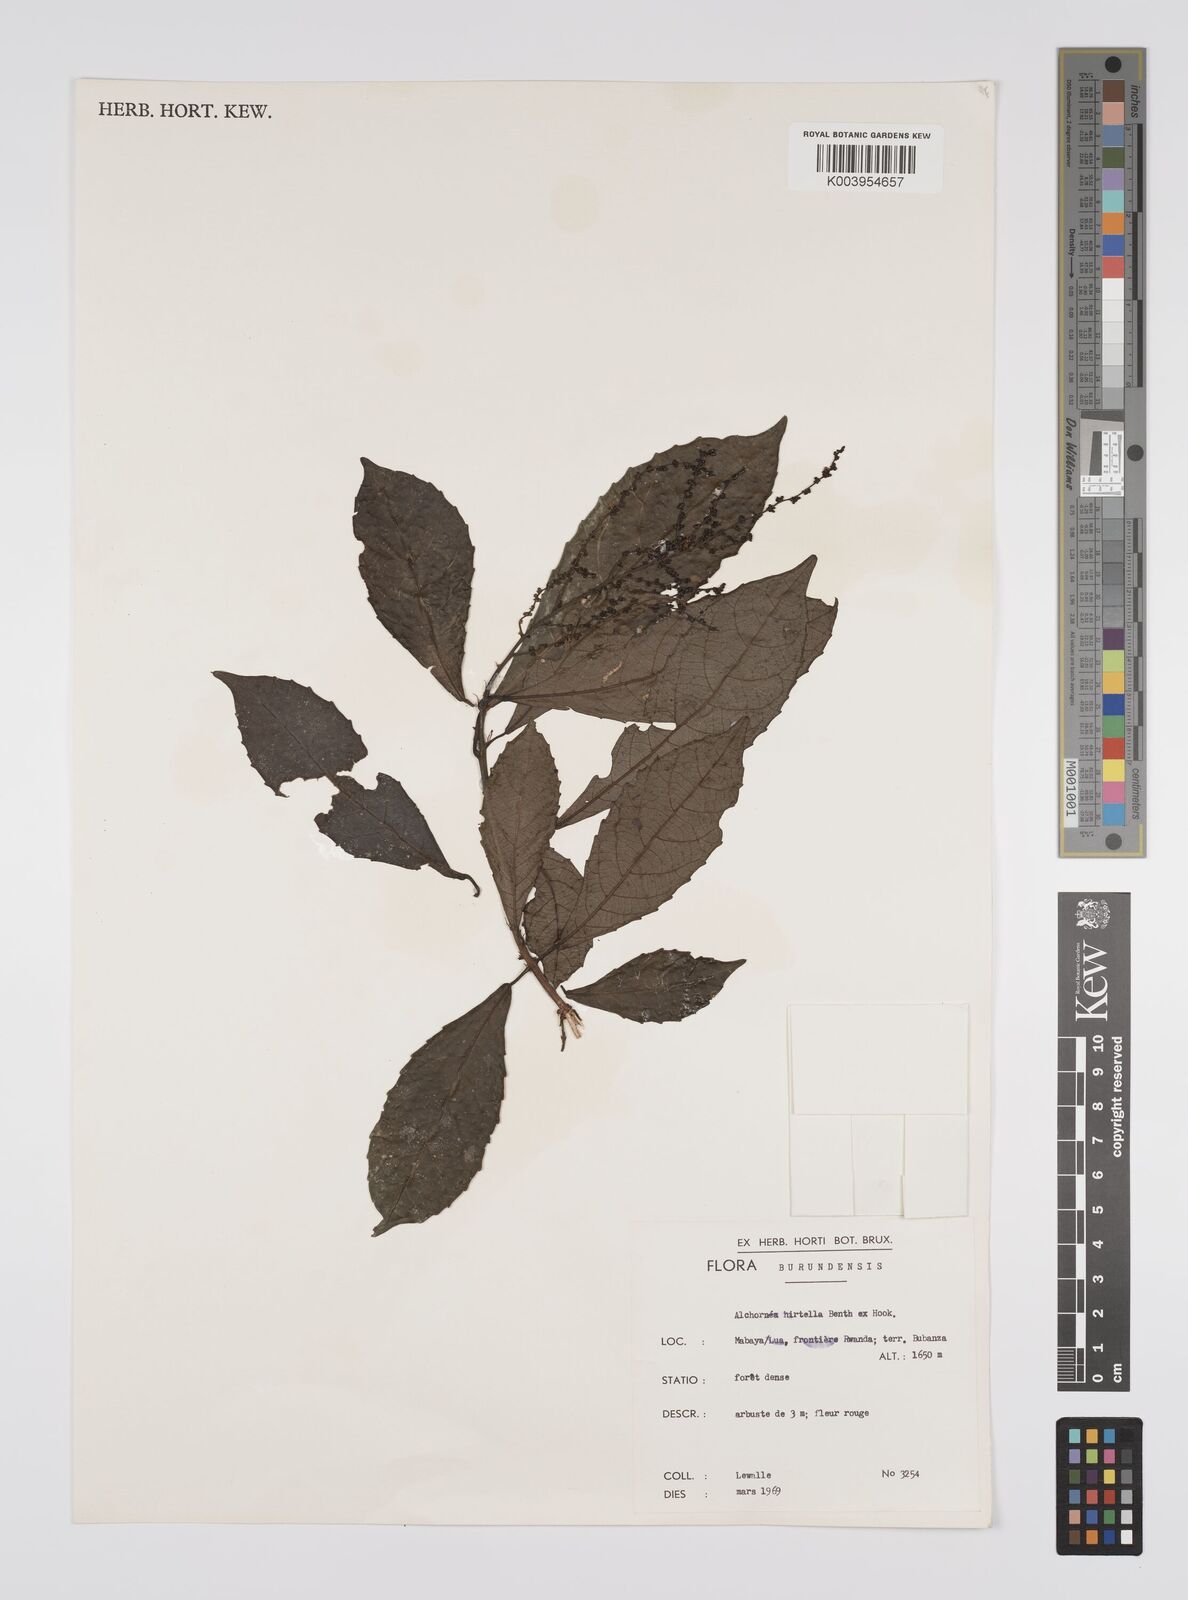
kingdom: Plantae
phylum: Tracheophyta
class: Magnoliopsida
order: Malpighiales
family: Euphorbiaceae
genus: Alchornea
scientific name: Alchornea hirtella
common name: Forest bead-string
